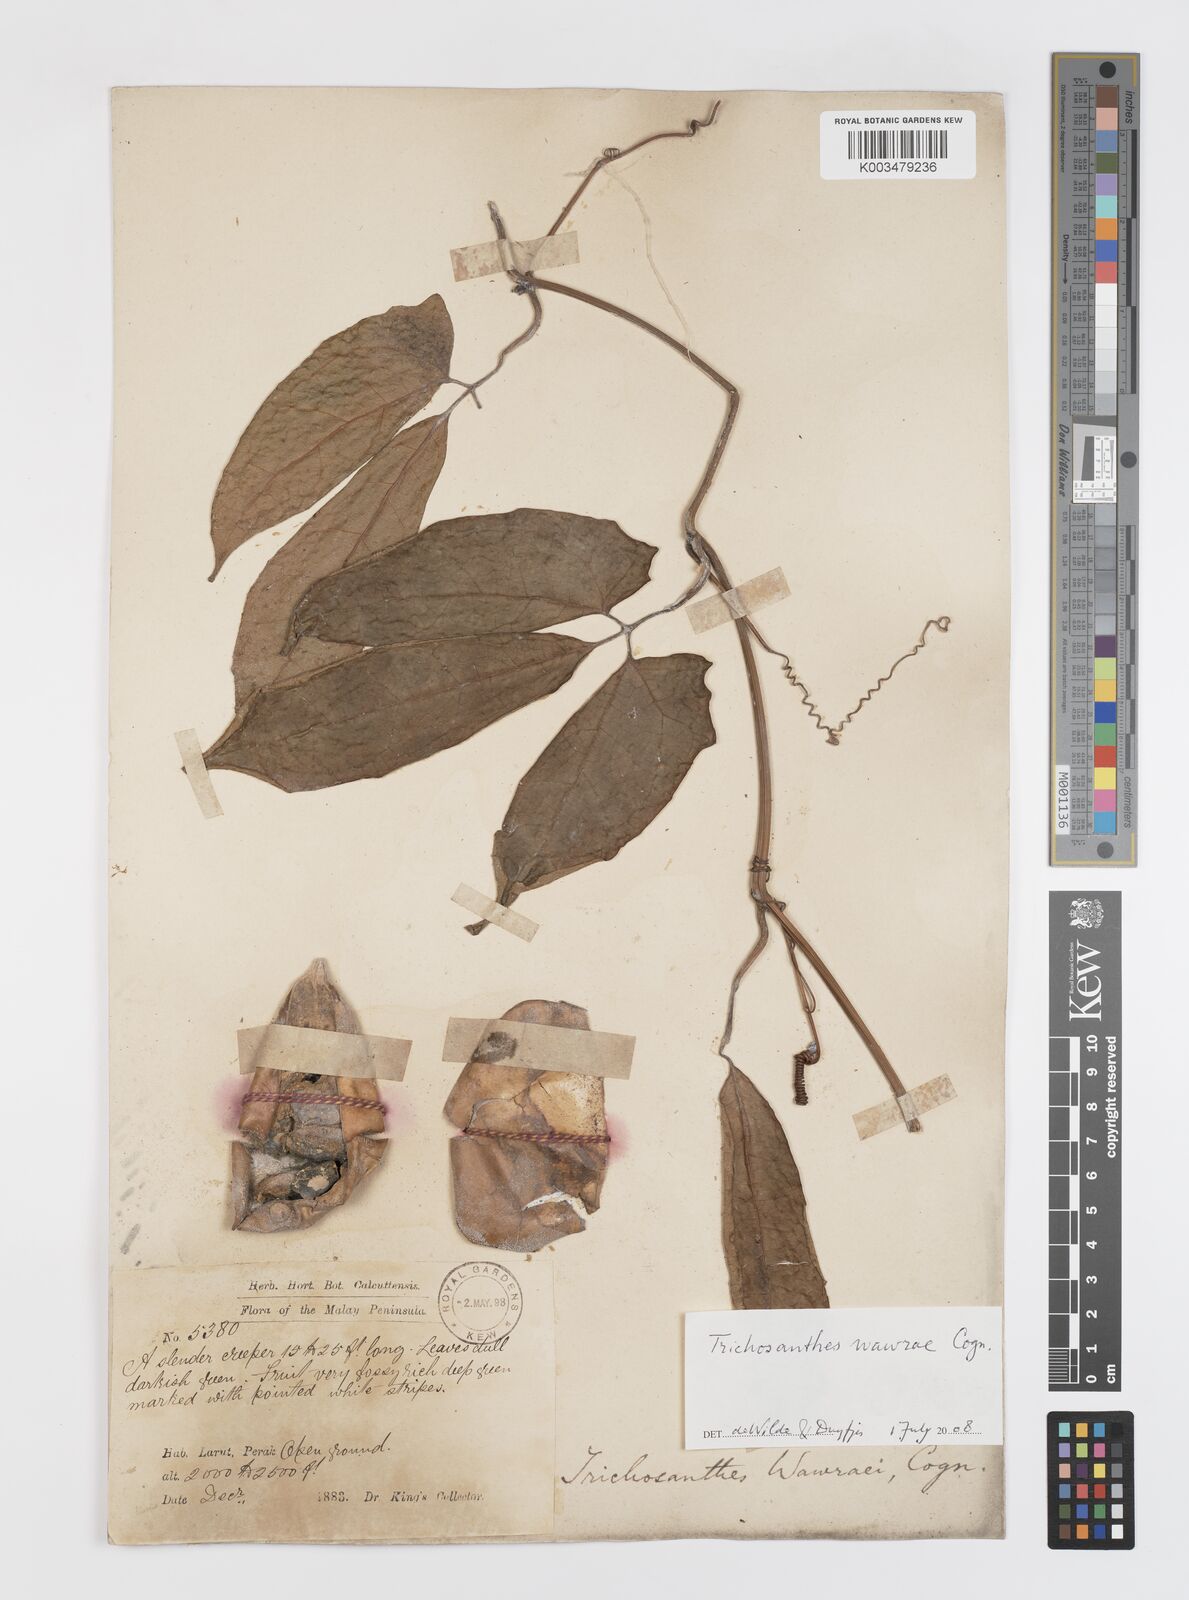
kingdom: Plantae
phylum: Tracheophyta
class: Magnoliopsida
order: Cucurbitales
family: Cucurbitaceae
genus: Trichosanthes
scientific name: Trichosanthes wawrae
